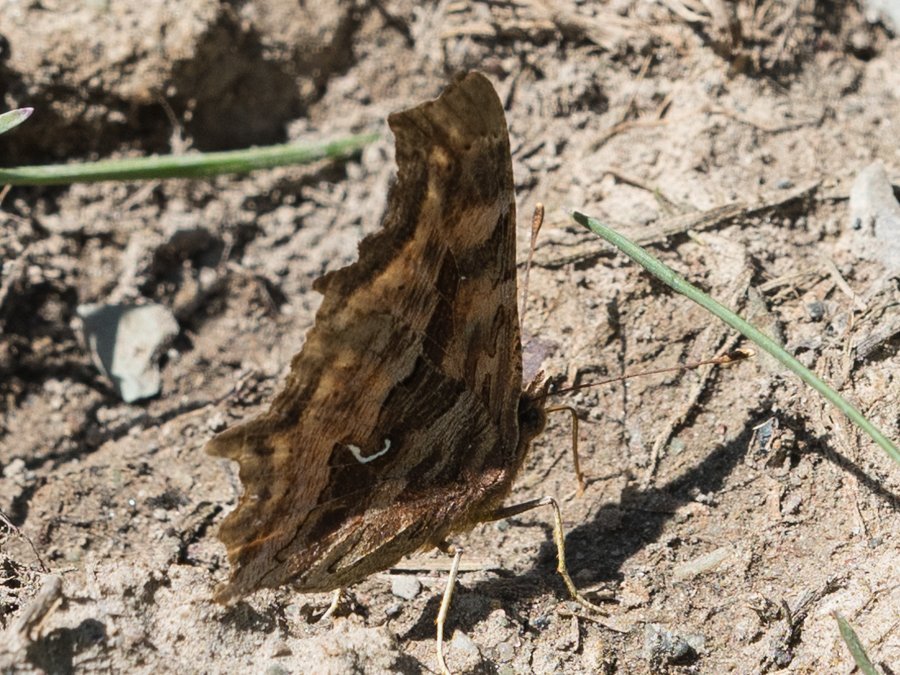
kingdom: Animalia
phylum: Arthropoda
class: Insecta
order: Lepidoptera
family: Nymphalidae
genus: Polygonia
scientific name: Polygonia satyrus
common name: Satyr Comma
